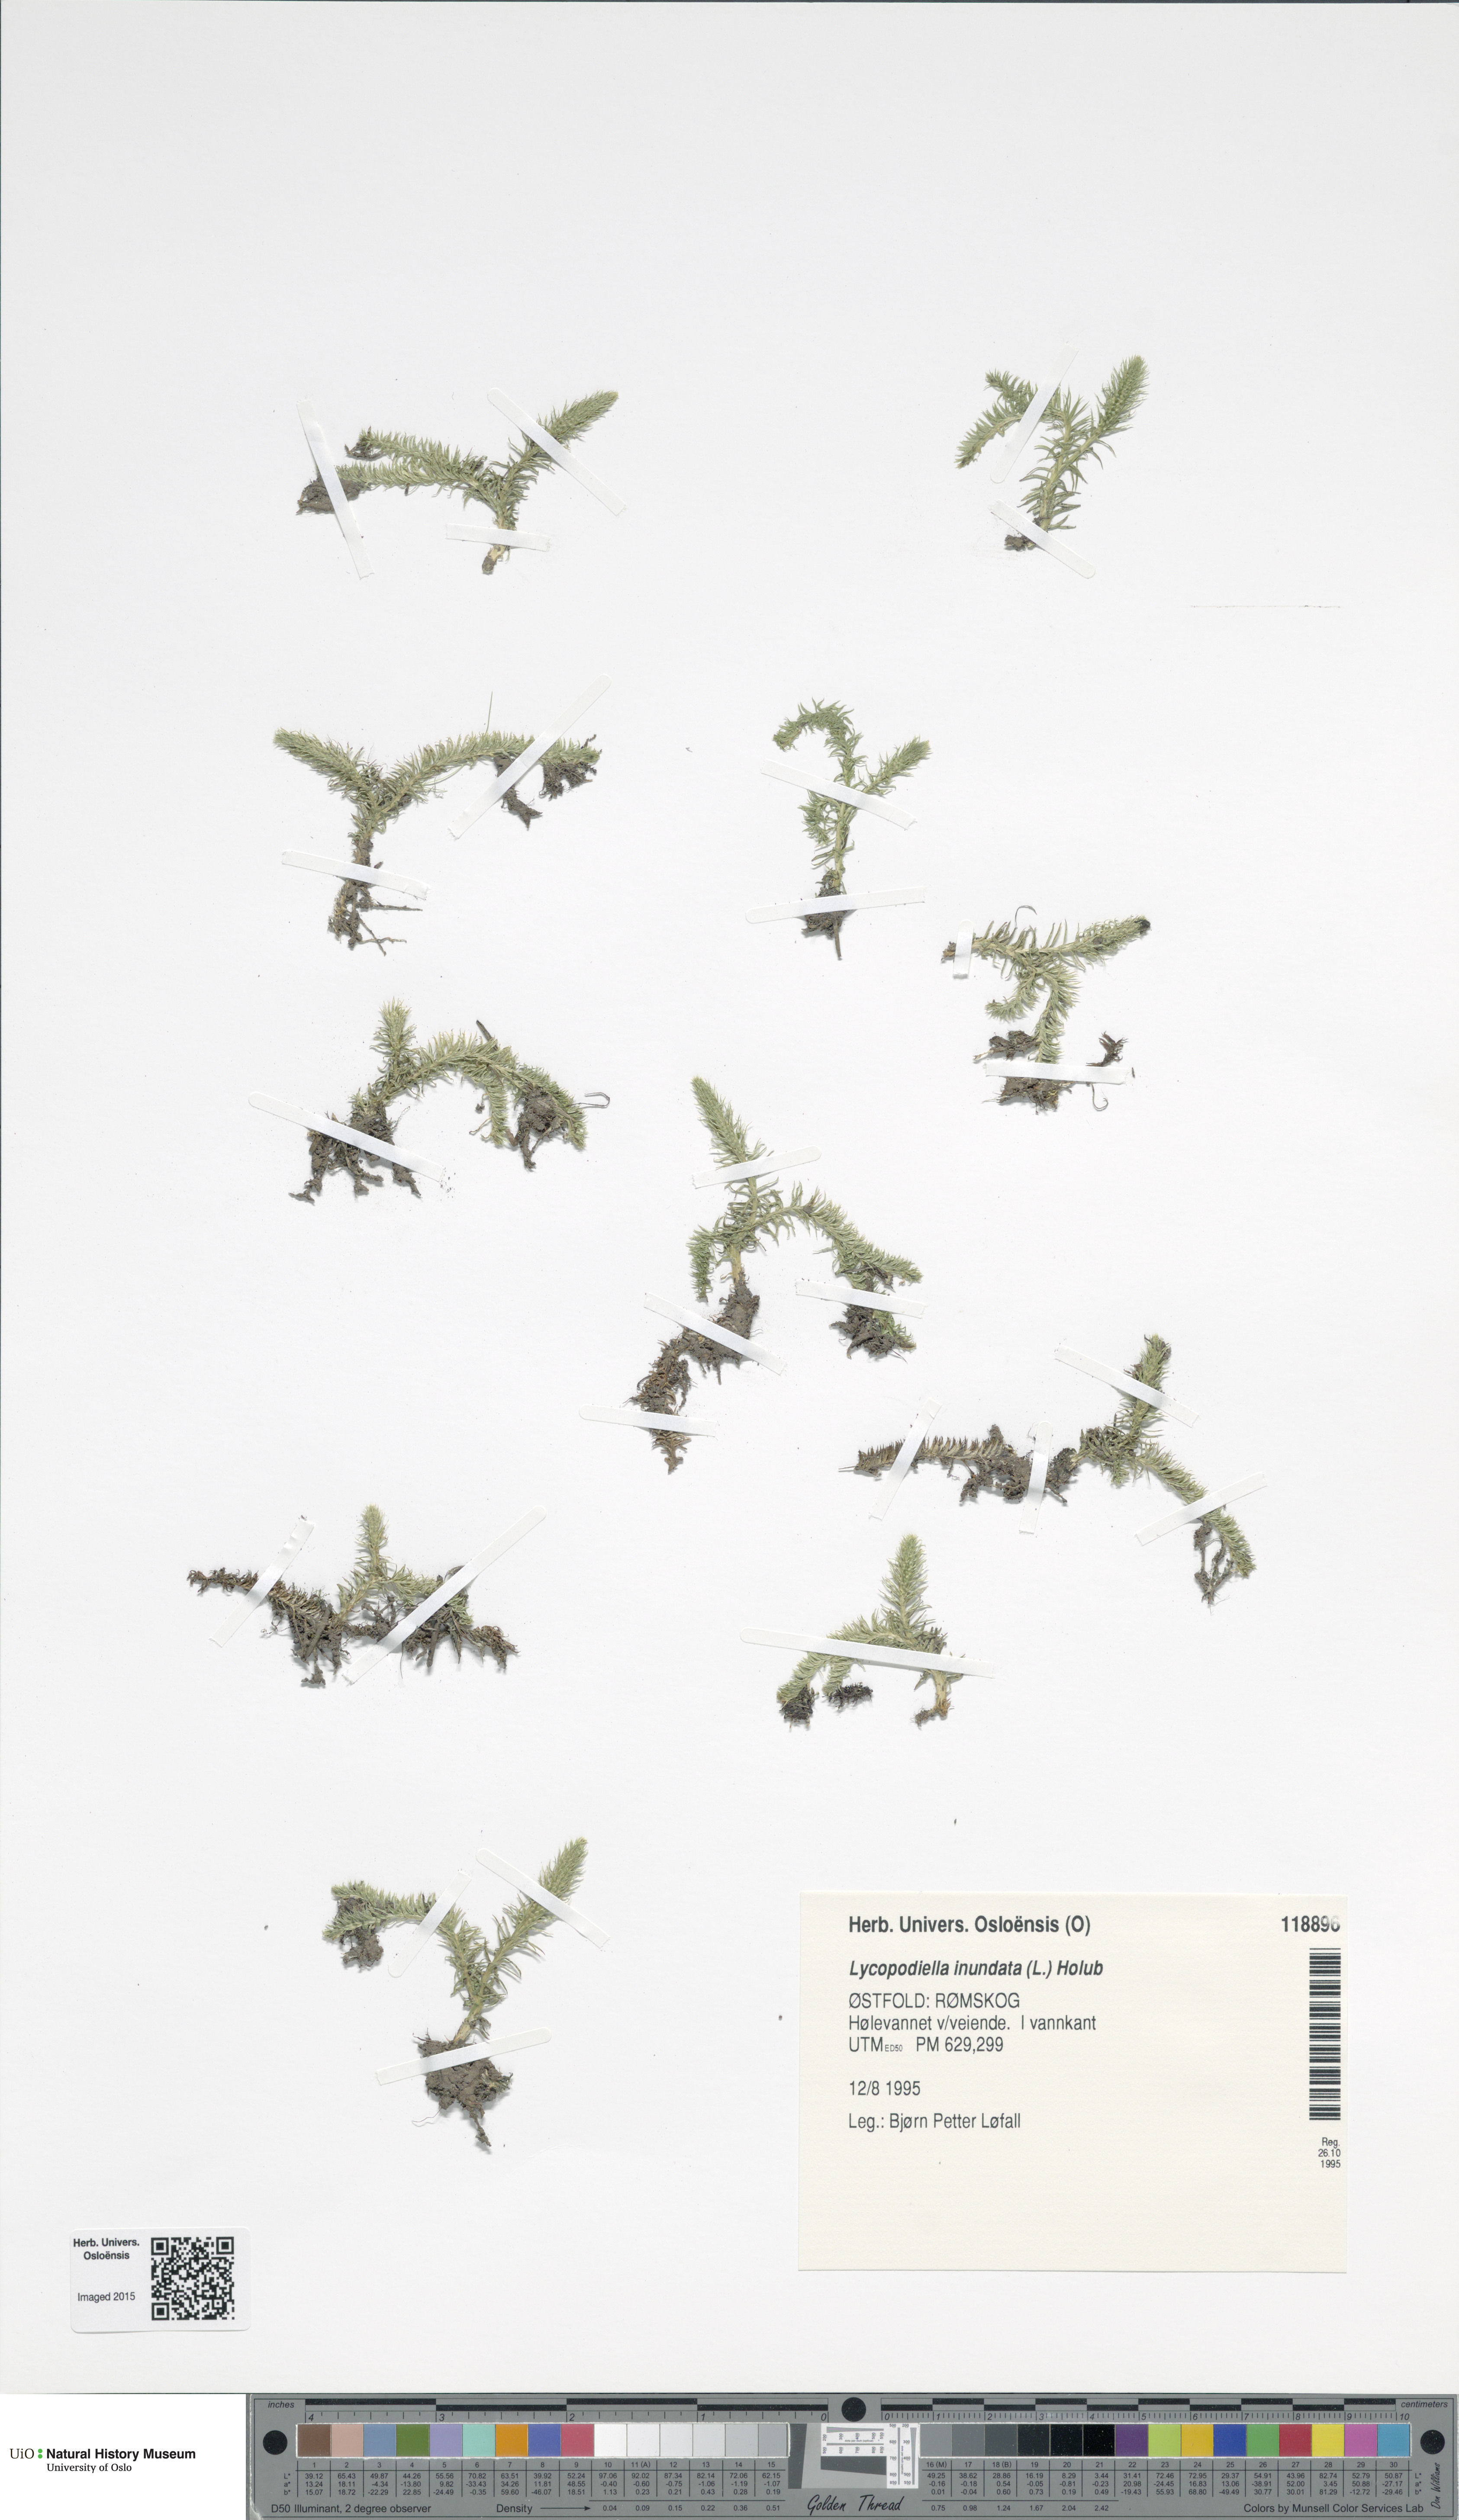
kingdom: Plantae
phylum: Tracheophyta
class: Lycopodiopsida
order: Lycopodiales
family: Lycopodiaceae
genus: Lycopodiella
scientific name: Lycopodiella inundata
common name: Marsh clubmoss
